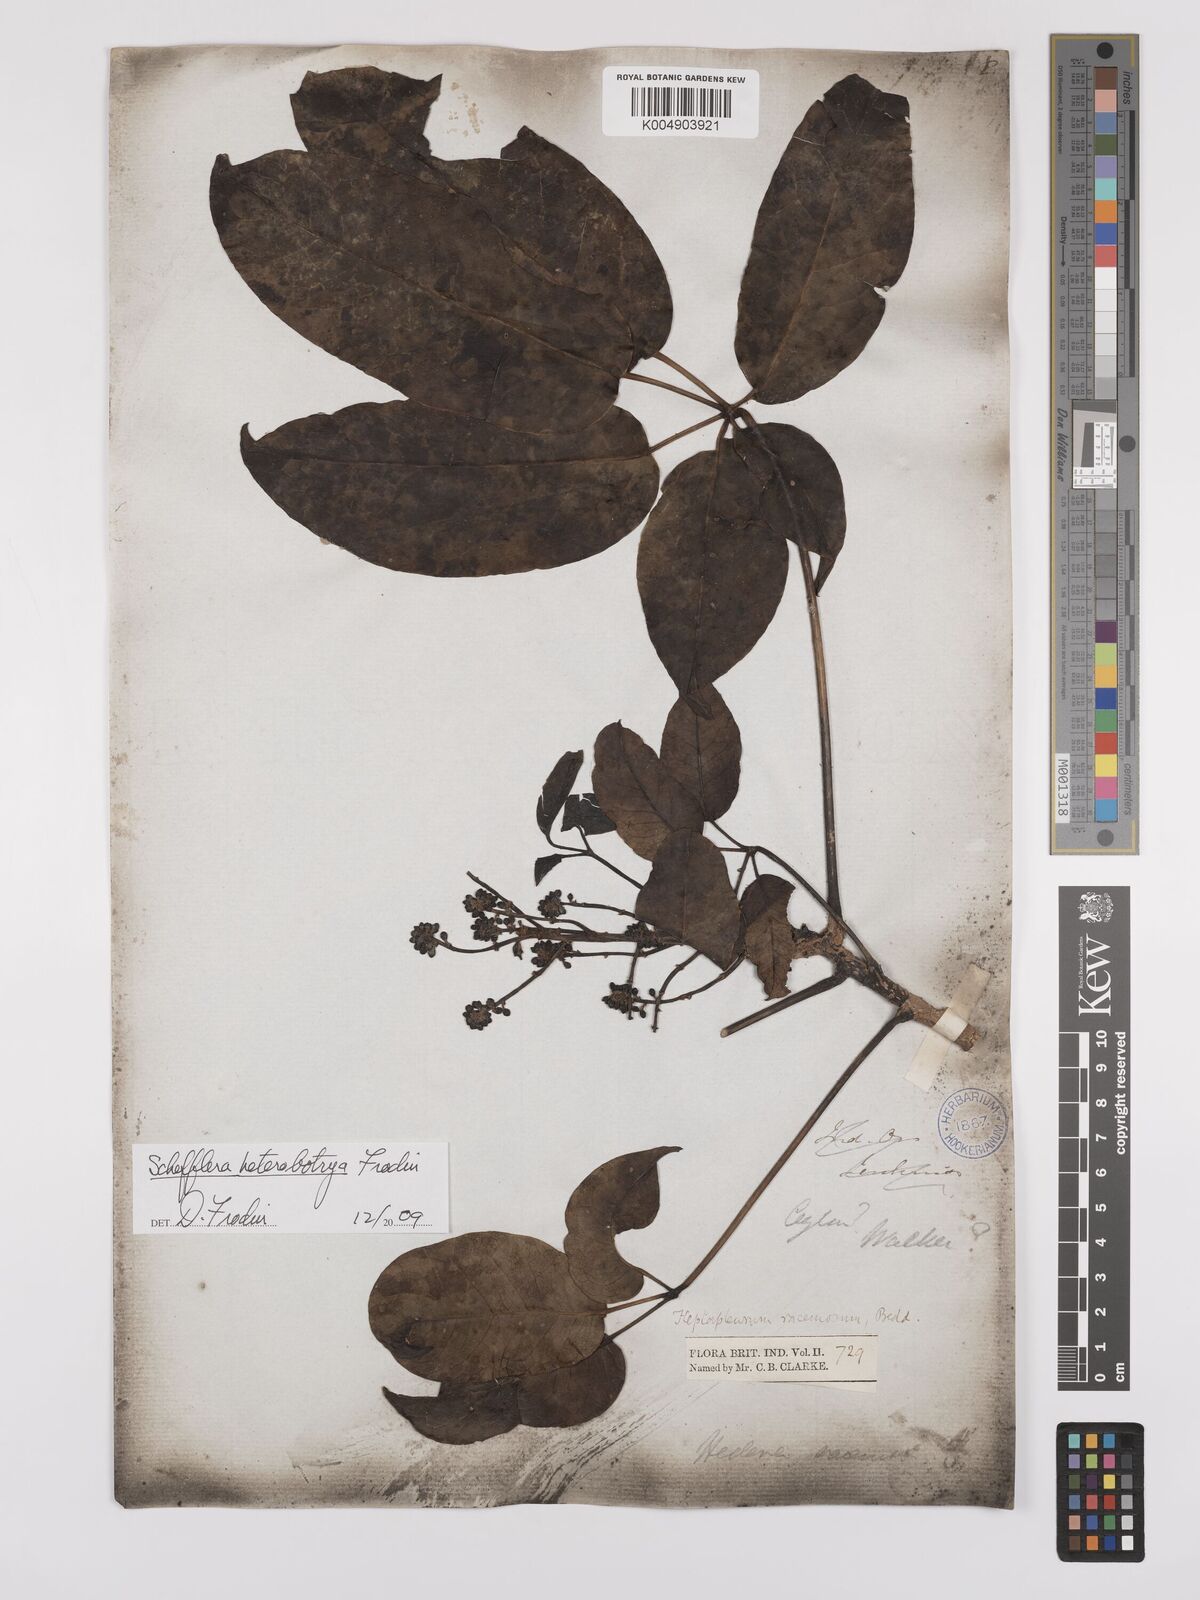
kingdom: Plantae
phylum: Tracheophyta
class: Magnoliopsida
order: Apiales
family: Araliaceae
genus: Heptapleurum
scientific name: Heptapleurum
